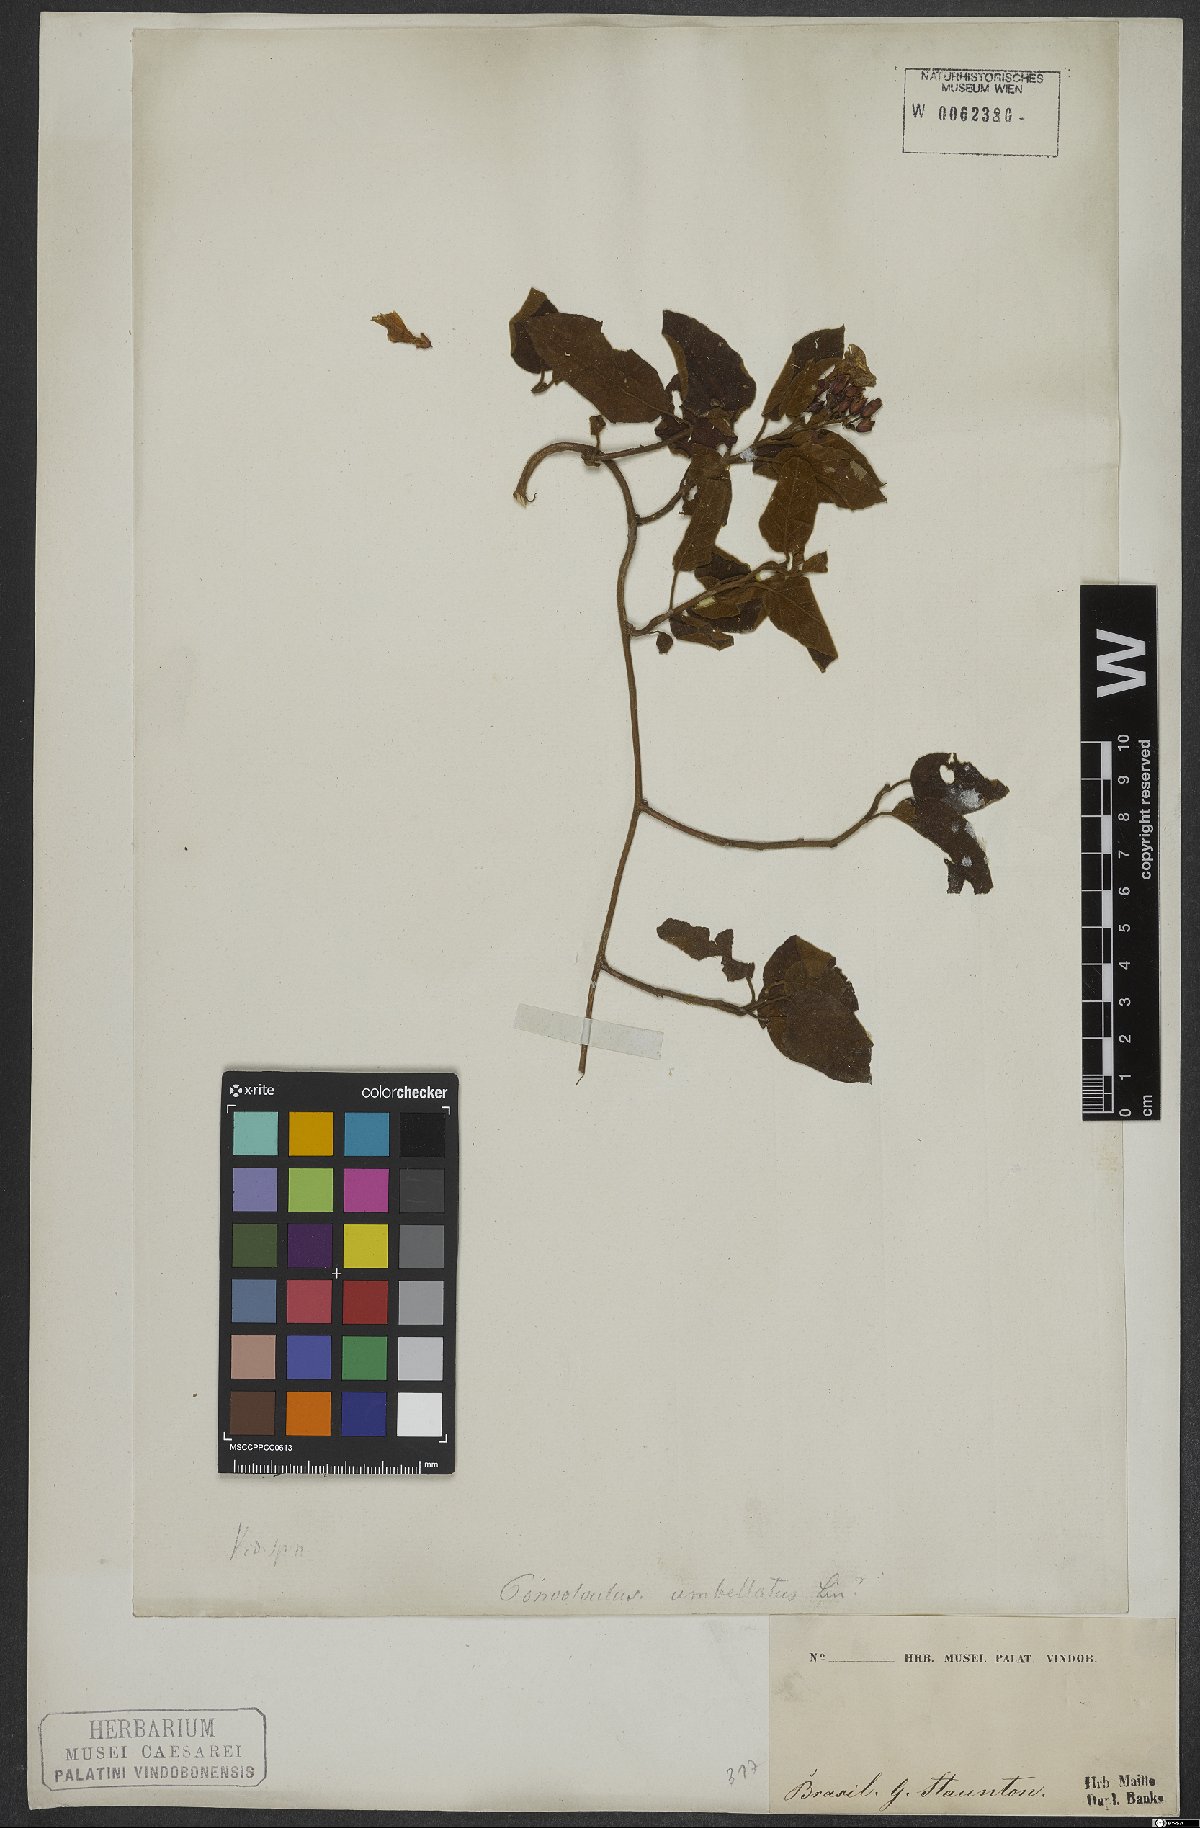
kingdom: Plantae
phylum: Tracheophyta
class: Magnoliopsida
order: Solanales
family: Convolvulaceae
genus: Jacquemontia
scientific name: Jacquemontia holosericea
